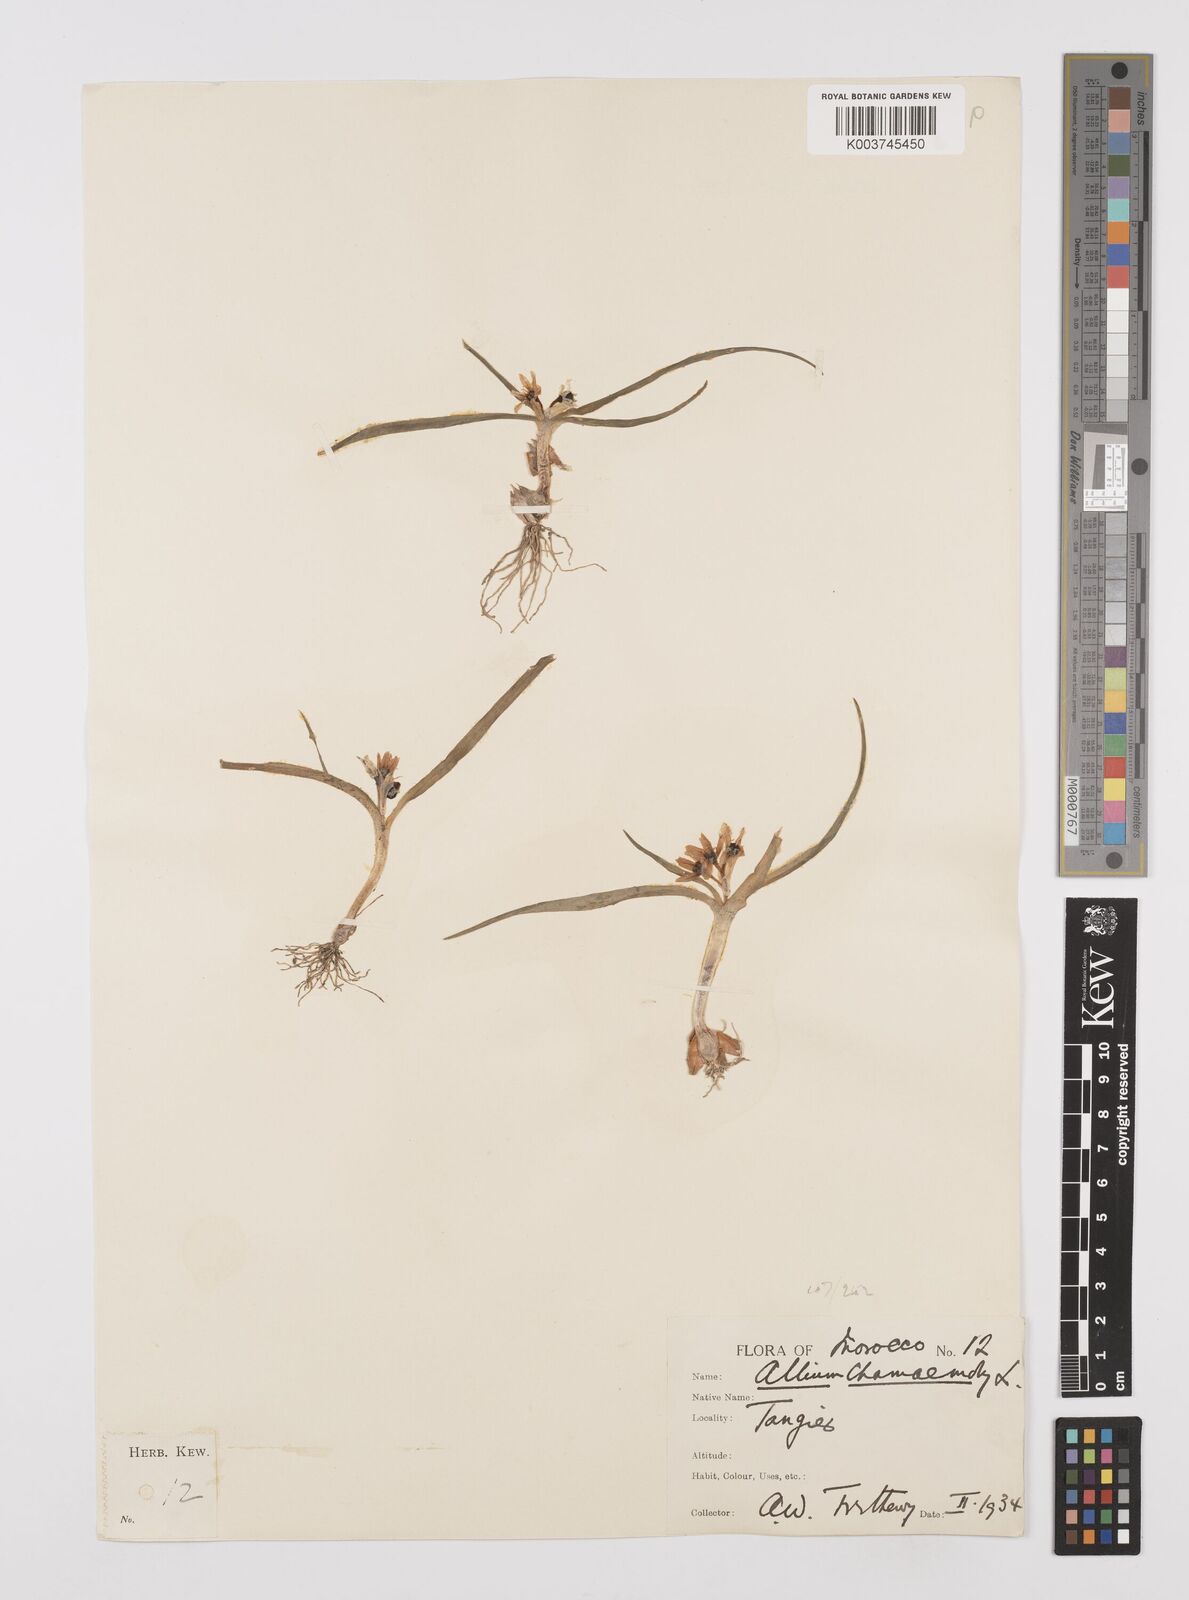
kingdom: Plantae
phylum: Tracheophyta
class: Liliopsida
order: Asparagales
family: Amaryllidaceae
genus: Allium
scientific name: Allium chamaemoly
